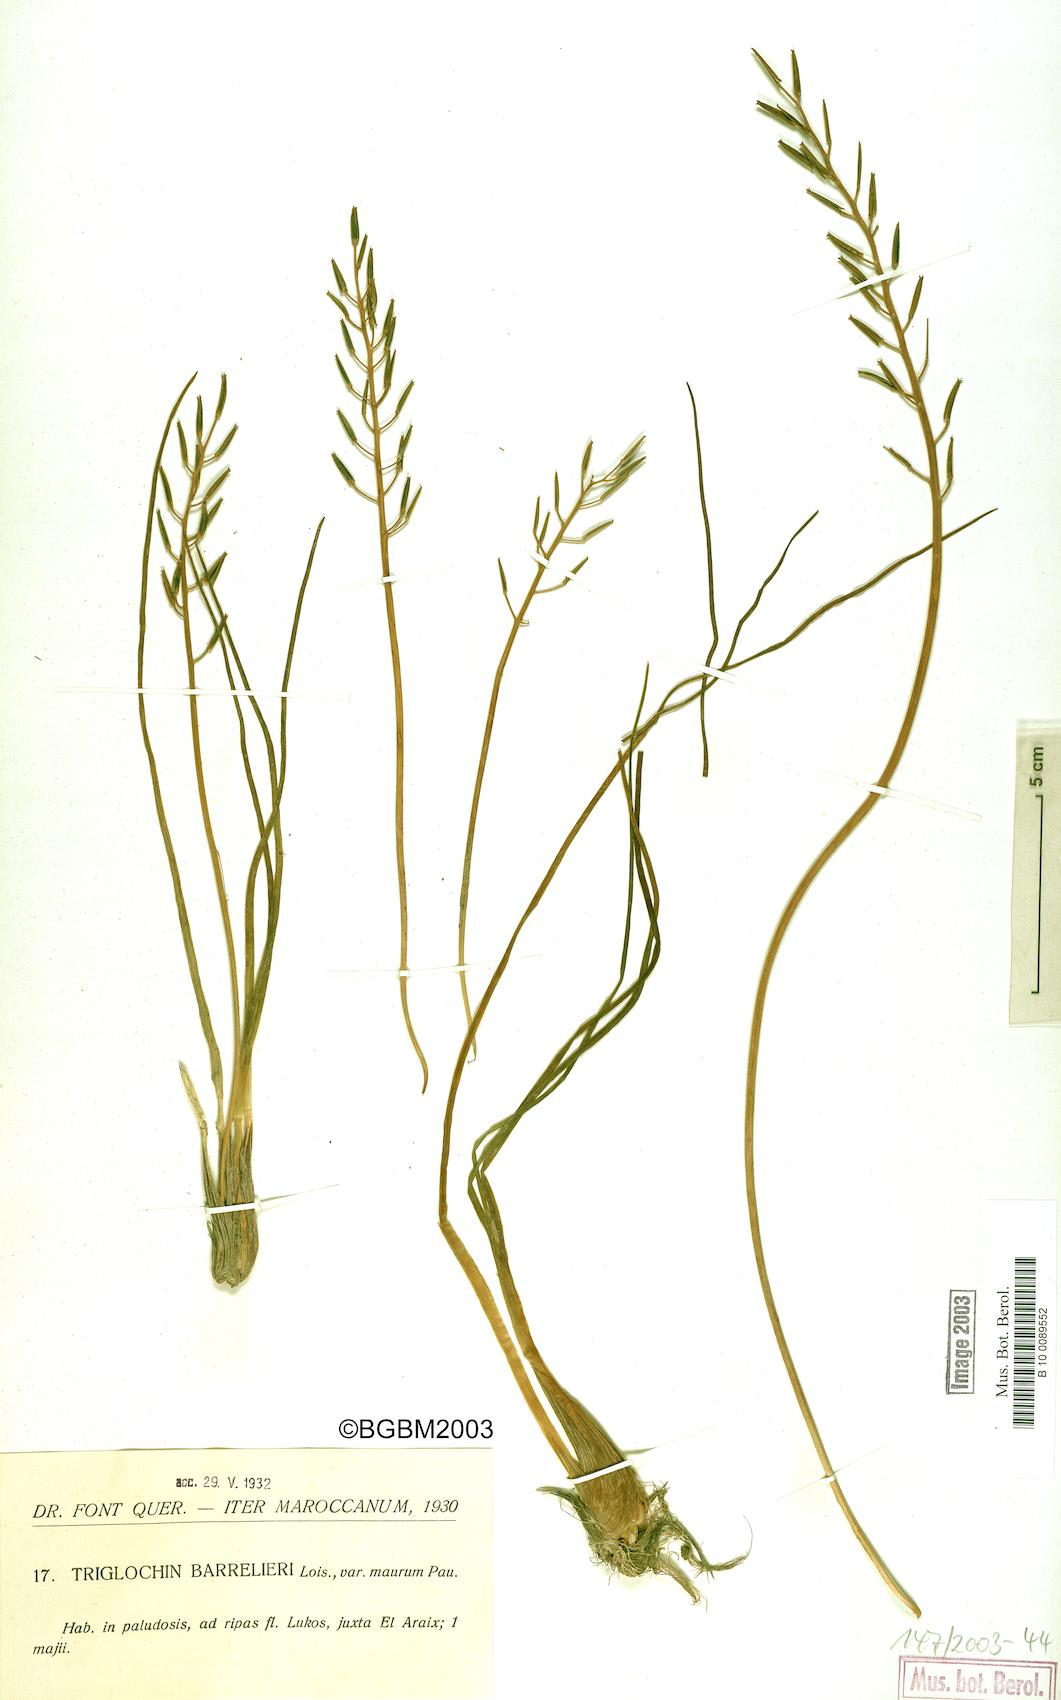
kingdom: Plantae
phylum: Tracheophyta
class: Liliopsida
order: Alismatales
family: Juncaginaceae
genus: Triglochin
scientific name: Triglochin bulbosa
